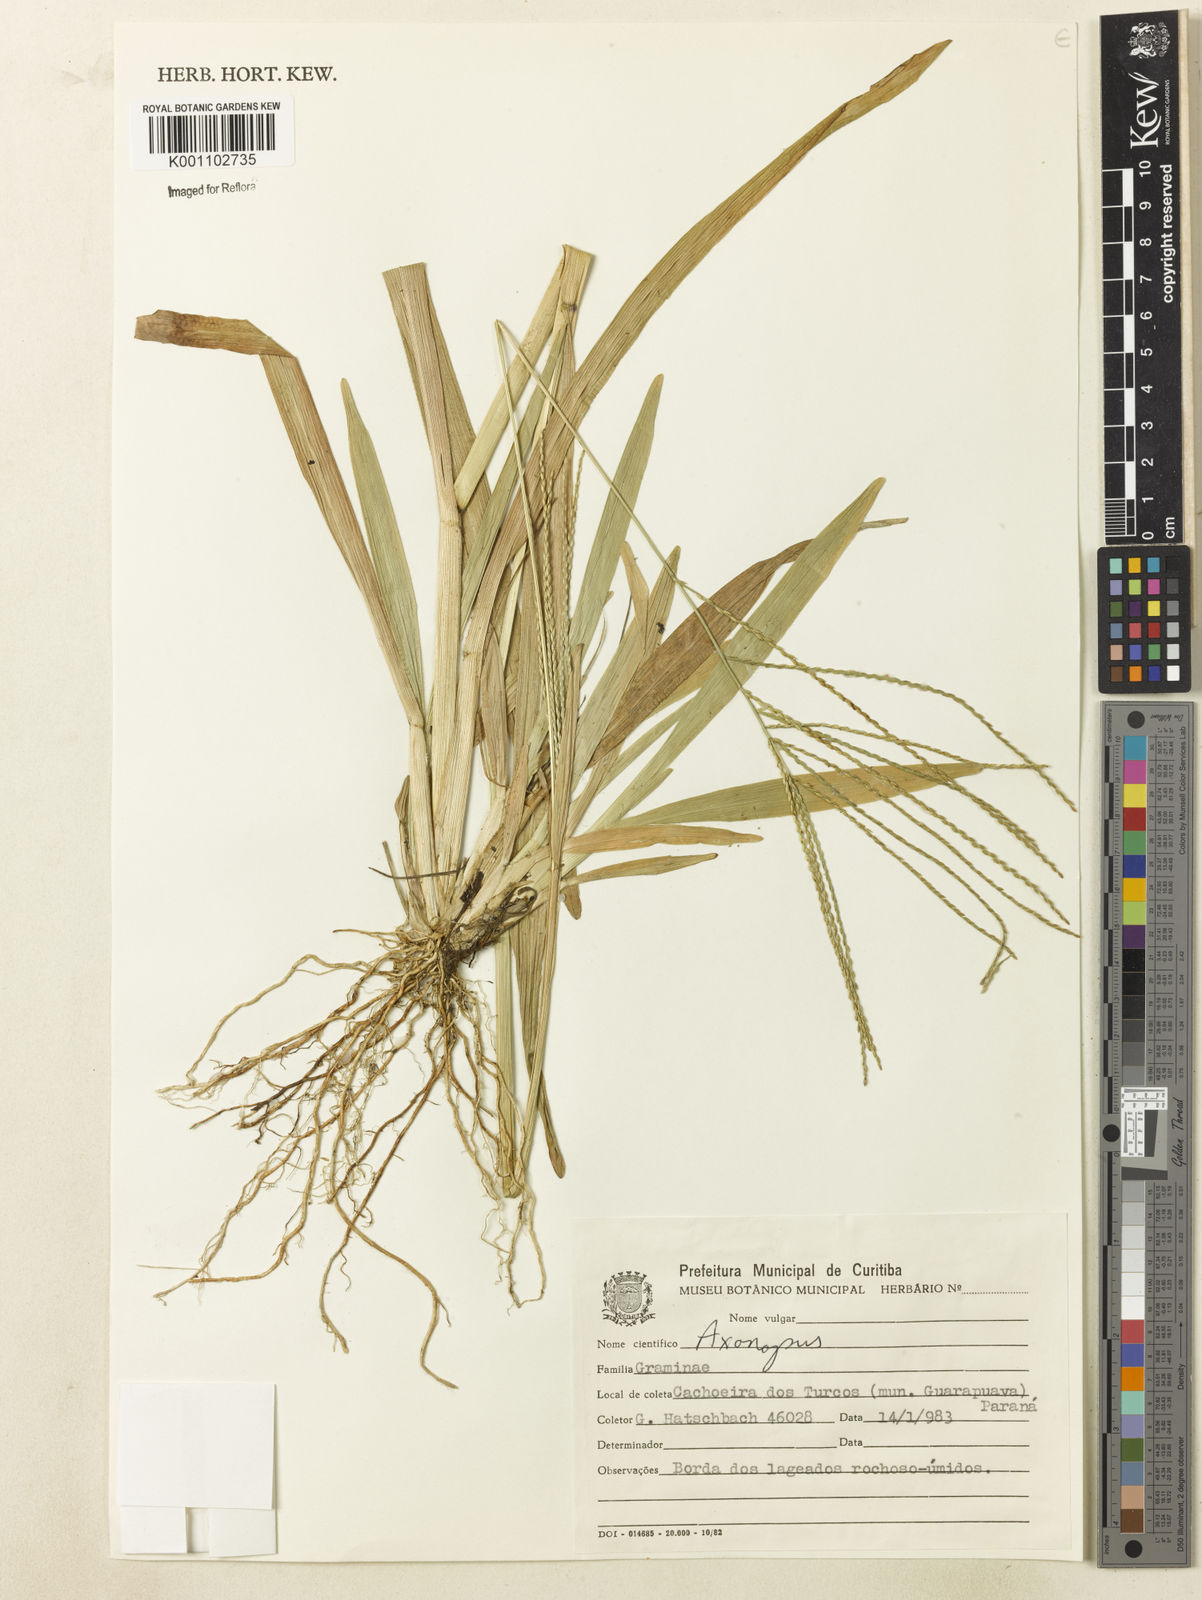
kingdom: Plantae
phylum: Tracheophyta
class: Liliopsida
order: Poales
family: Poaceae
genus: Axonopus
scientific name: Axonopus polystachyus
